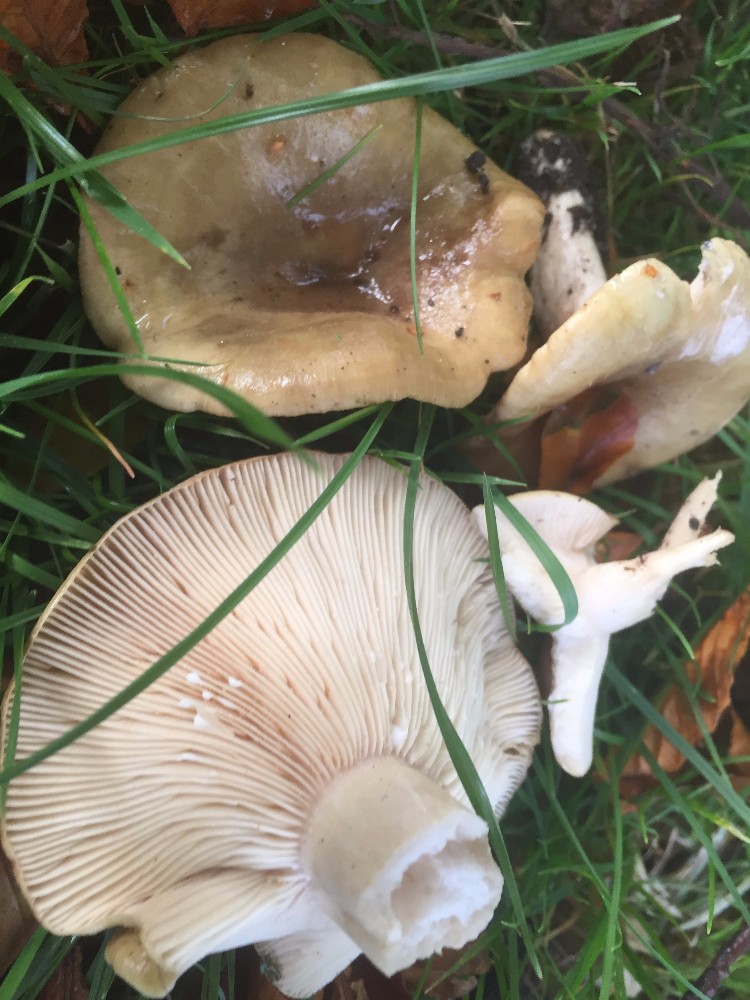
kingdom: Fungi
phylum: Basidiomycota
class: Agaricomycetes
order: Russulales
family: Russulaceae
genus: Lactarius
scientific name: Lactarius blennius
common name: dråbeplettet mælkehat
